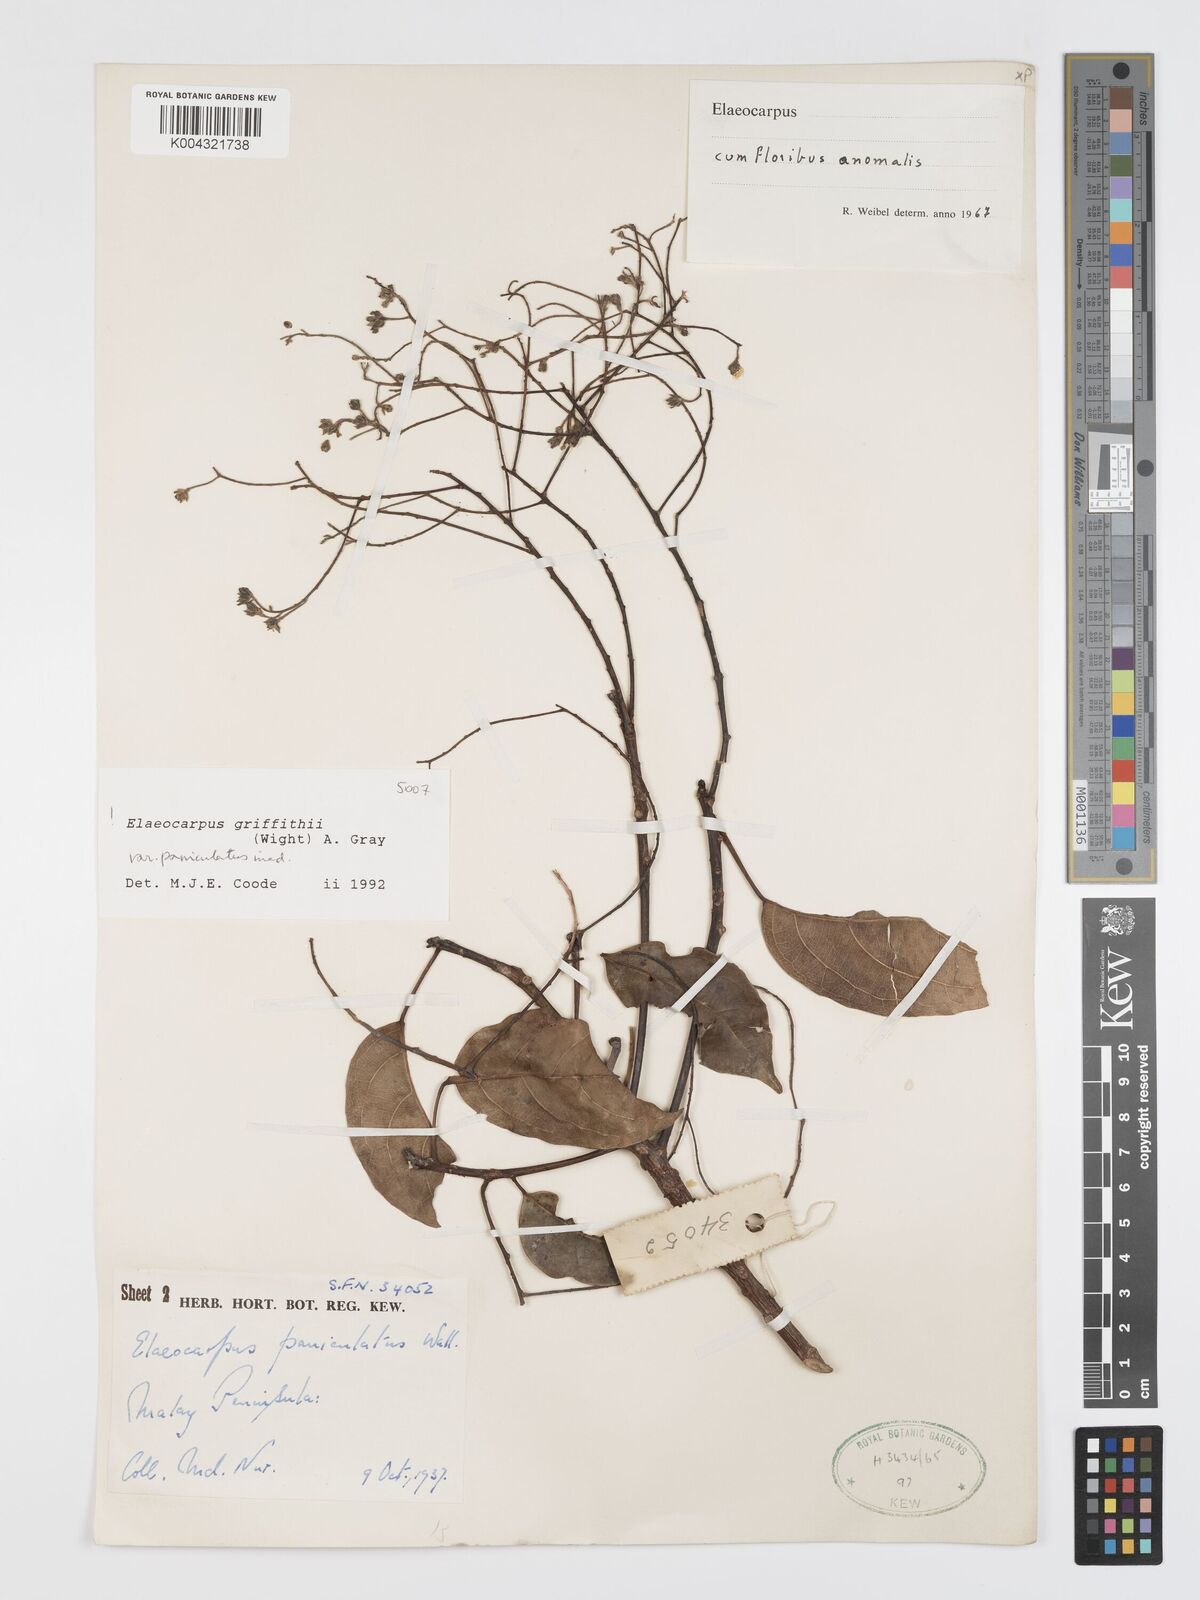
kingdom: Plantae
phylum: Tracheophyta
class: Magnoliopsida
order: Oxalidales
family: Elaeocarpaceae
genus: Elaeocarpus
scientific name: Elaeocarpus griffithii
